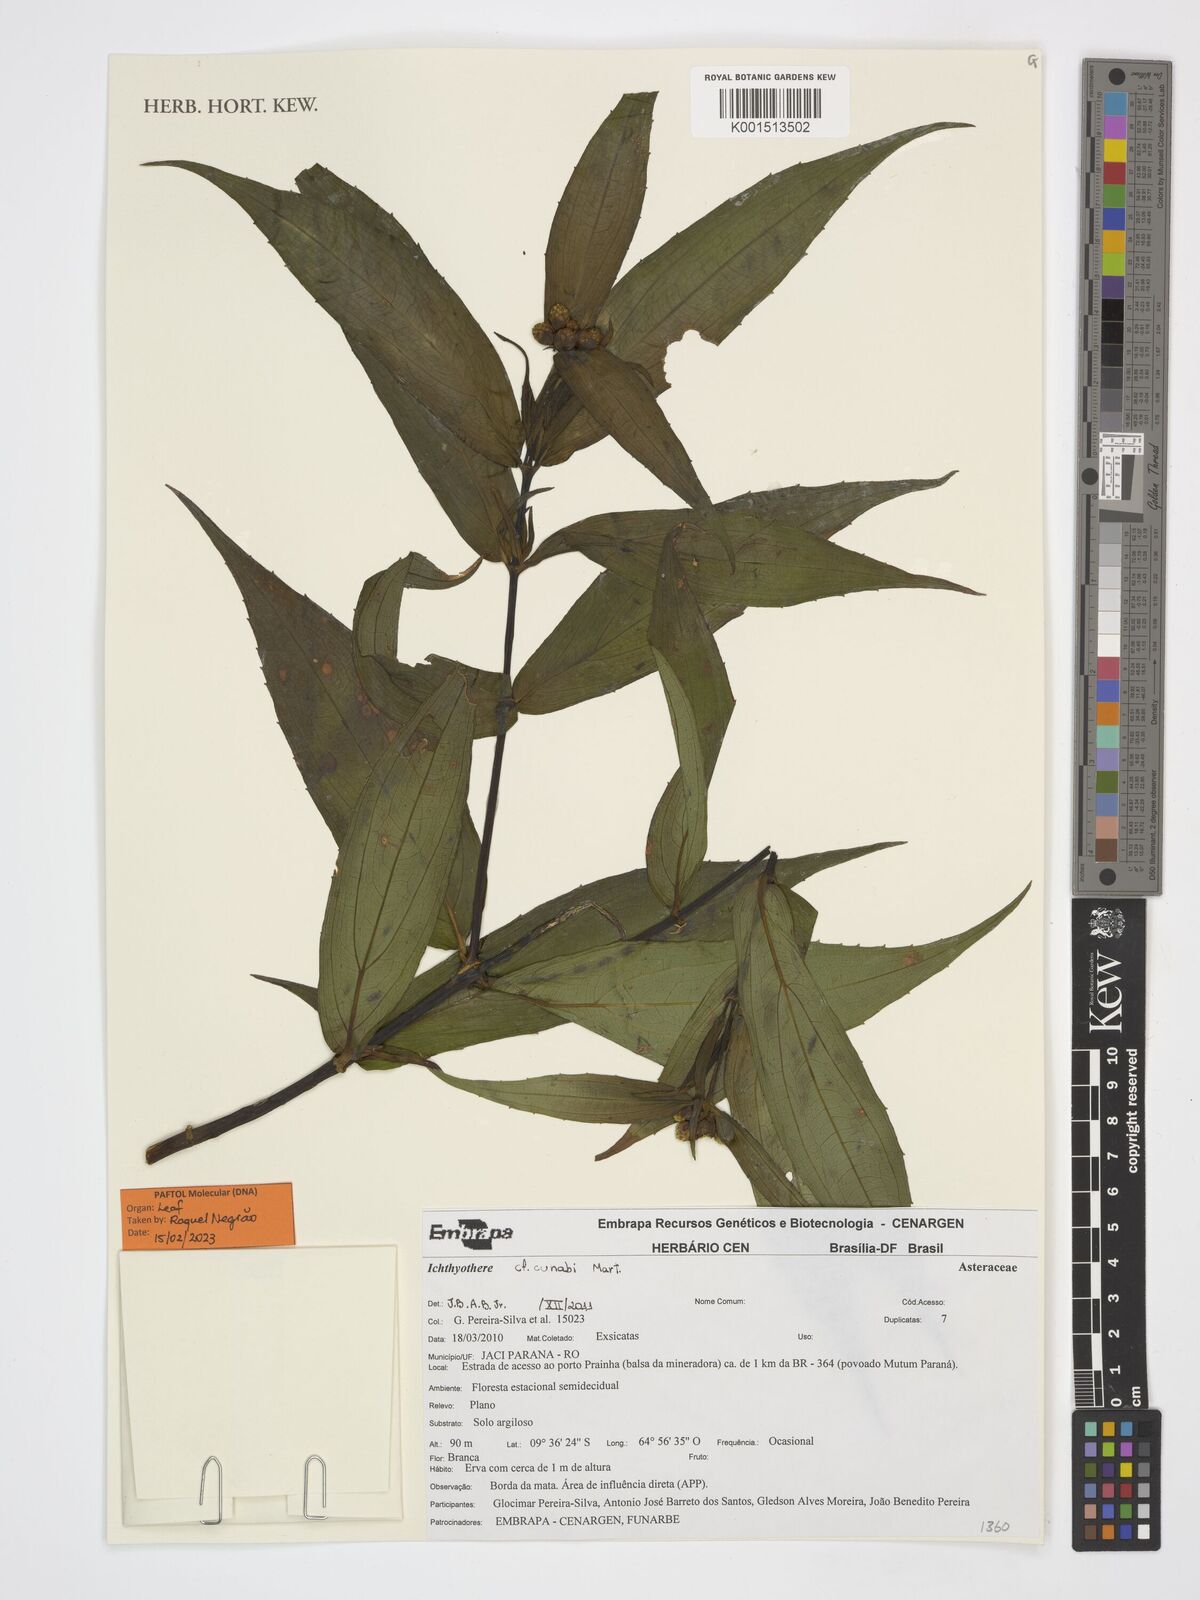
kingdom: Plantae
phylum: Tracheophyta
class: Magnoliopsida
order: Asterales
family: Asteraceae
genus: Ichthyothere
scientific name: Ichthyothere cunabi
